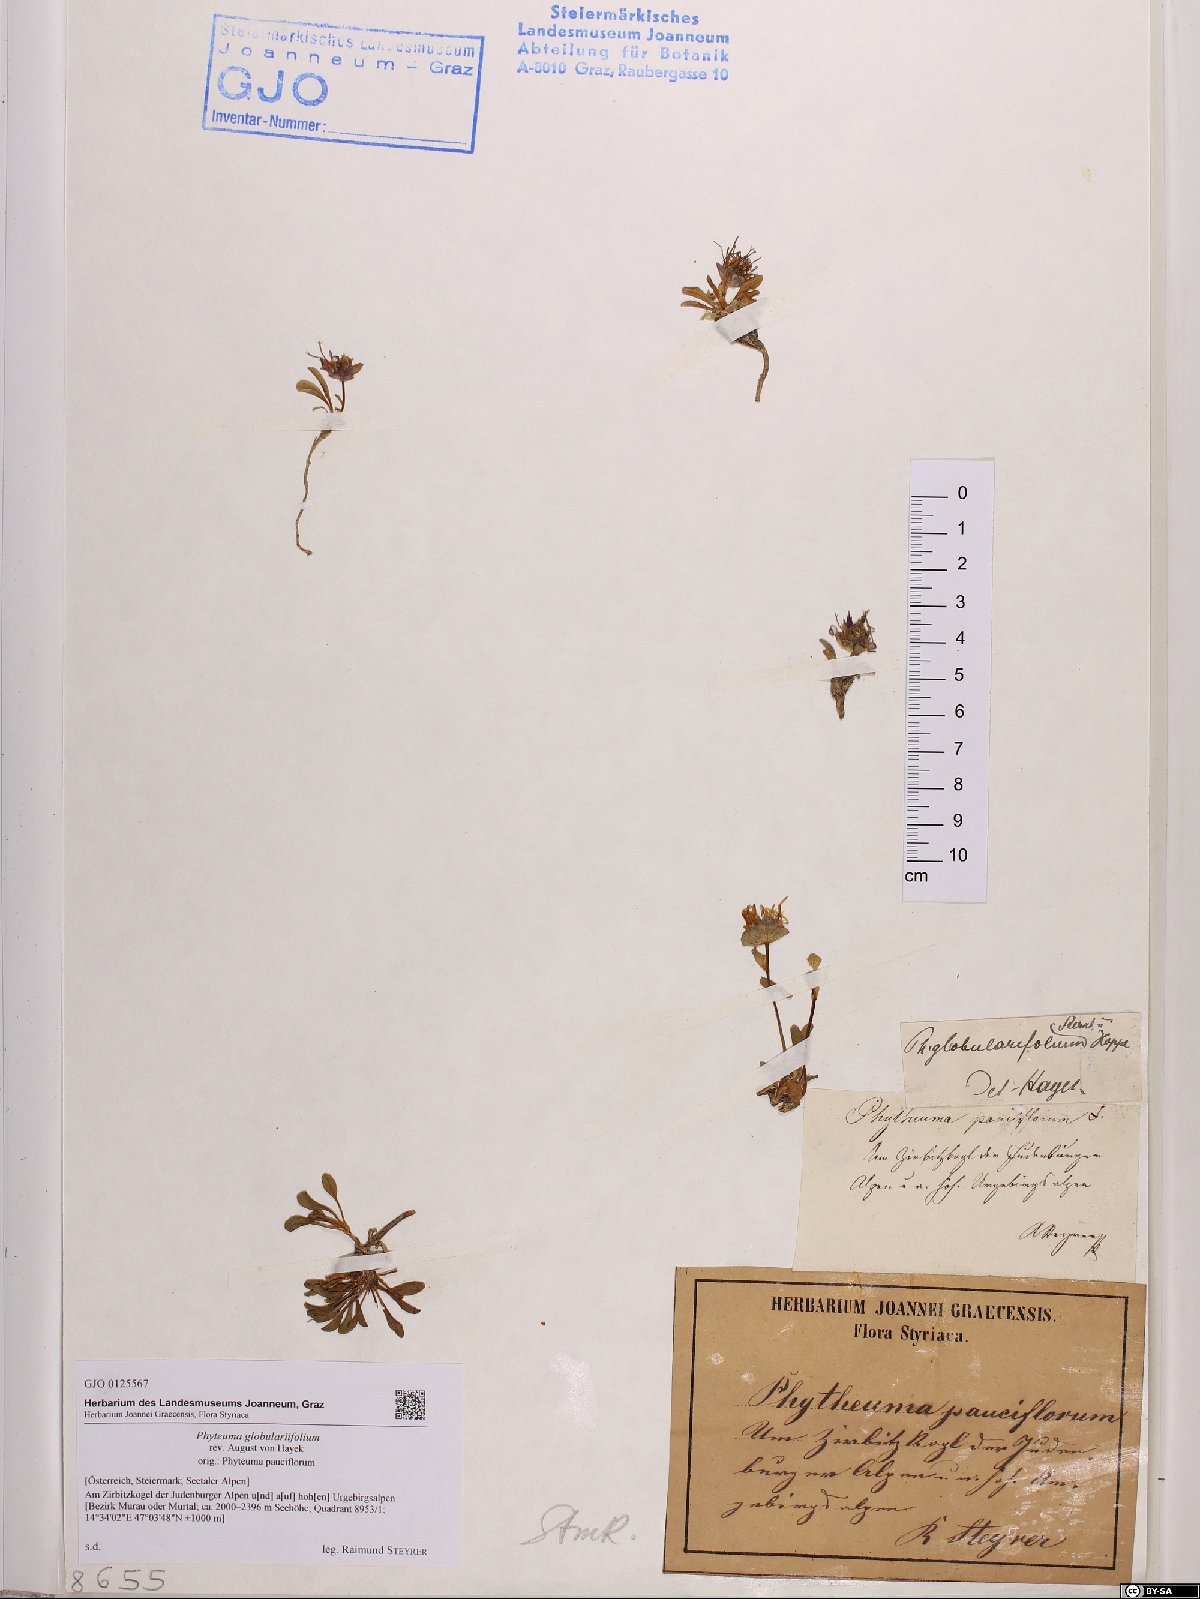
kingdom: Plantae
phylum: Tracheophyta
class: Magnoliopsida
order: Asterales
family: Campanulaceae
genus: Phyteuma
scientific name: Phyteuma globulariifolium
